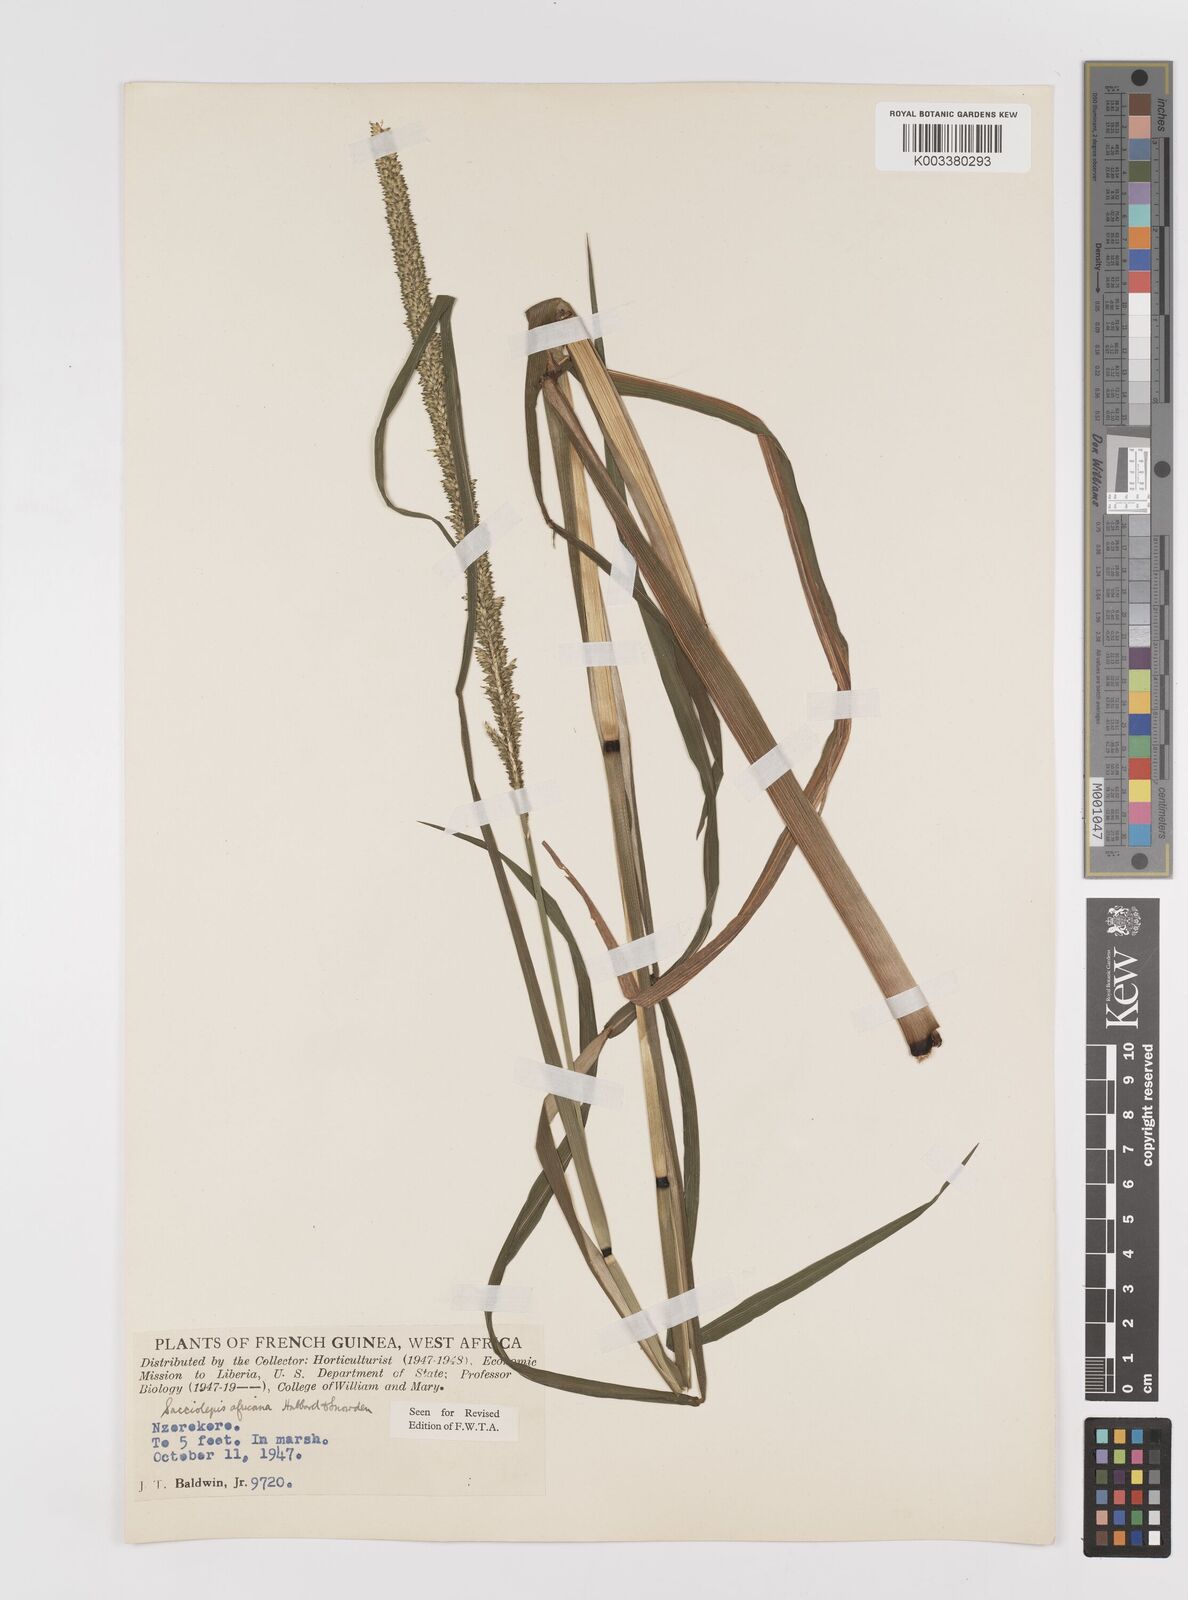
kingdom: Plantae
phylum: Tracheophyta
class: Liliopsida
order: Poales
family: Poaceae
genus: Sacciolepis
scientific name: Sacciolepis africana
